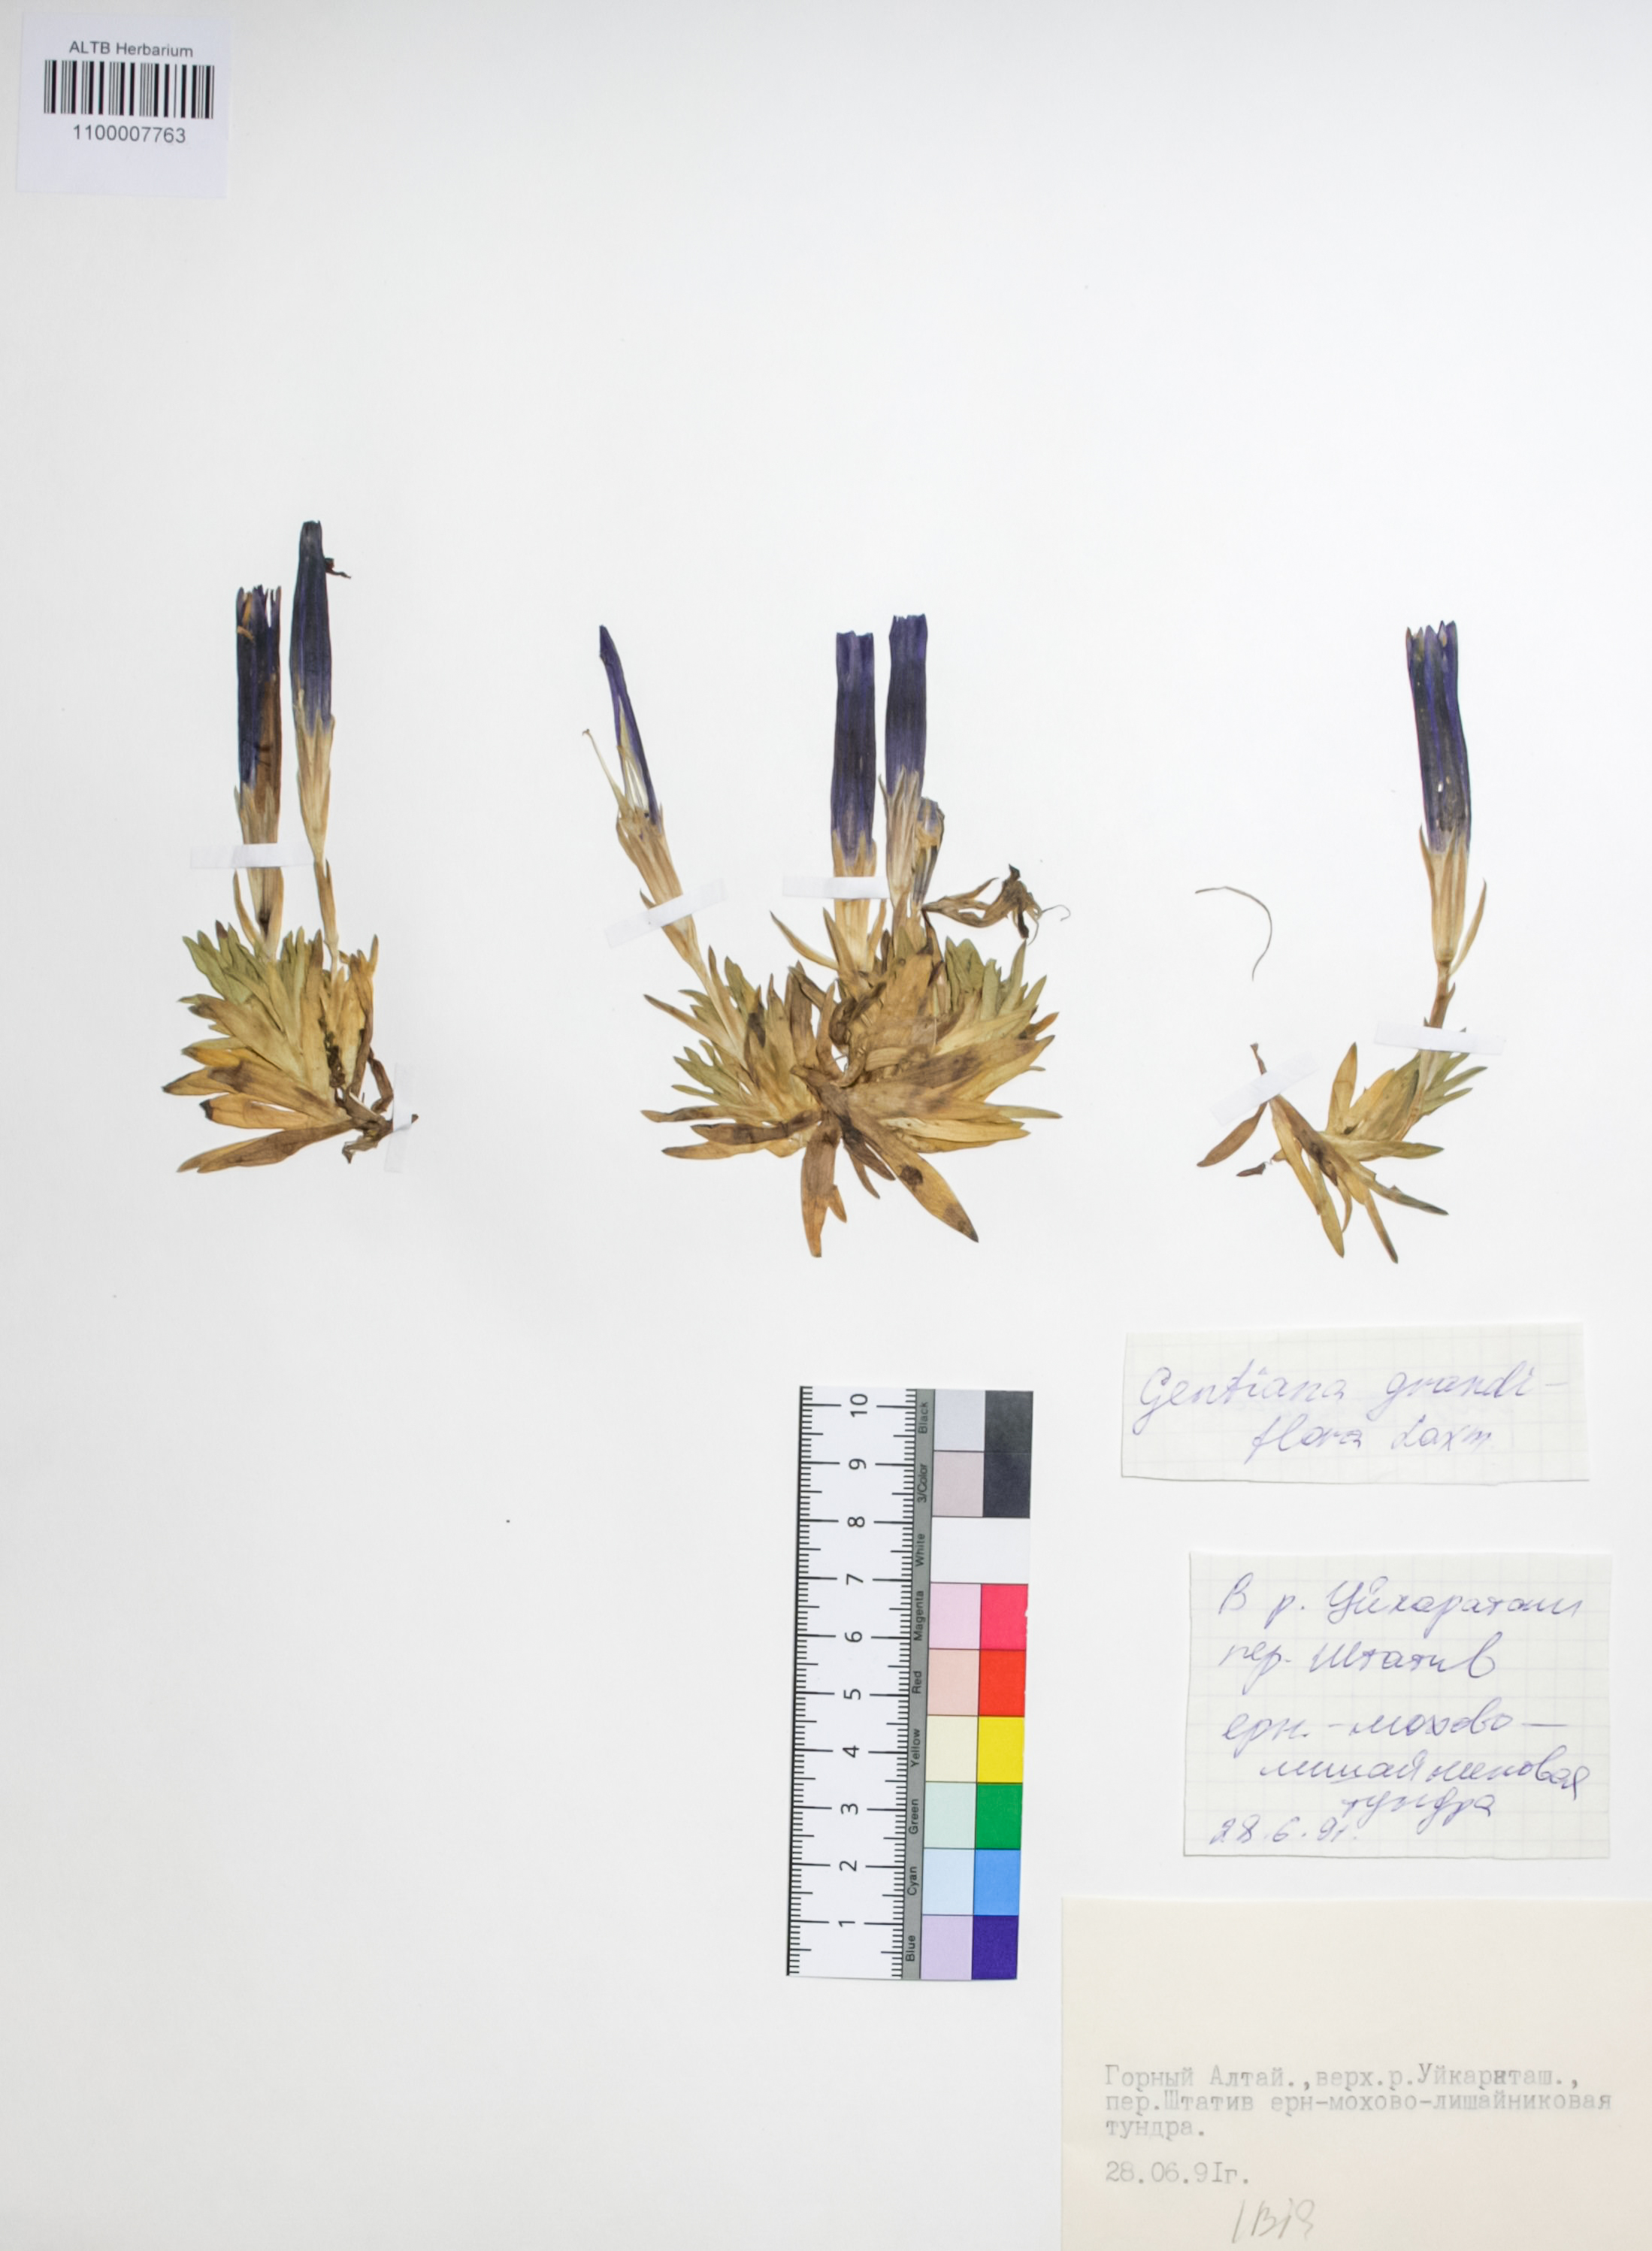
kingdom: Plantae
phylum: Tracheophyta
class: Magnoliopsida
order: Gentianales
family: Gentianaceae
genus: Gentiana
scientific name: Gentiana grandiflora
